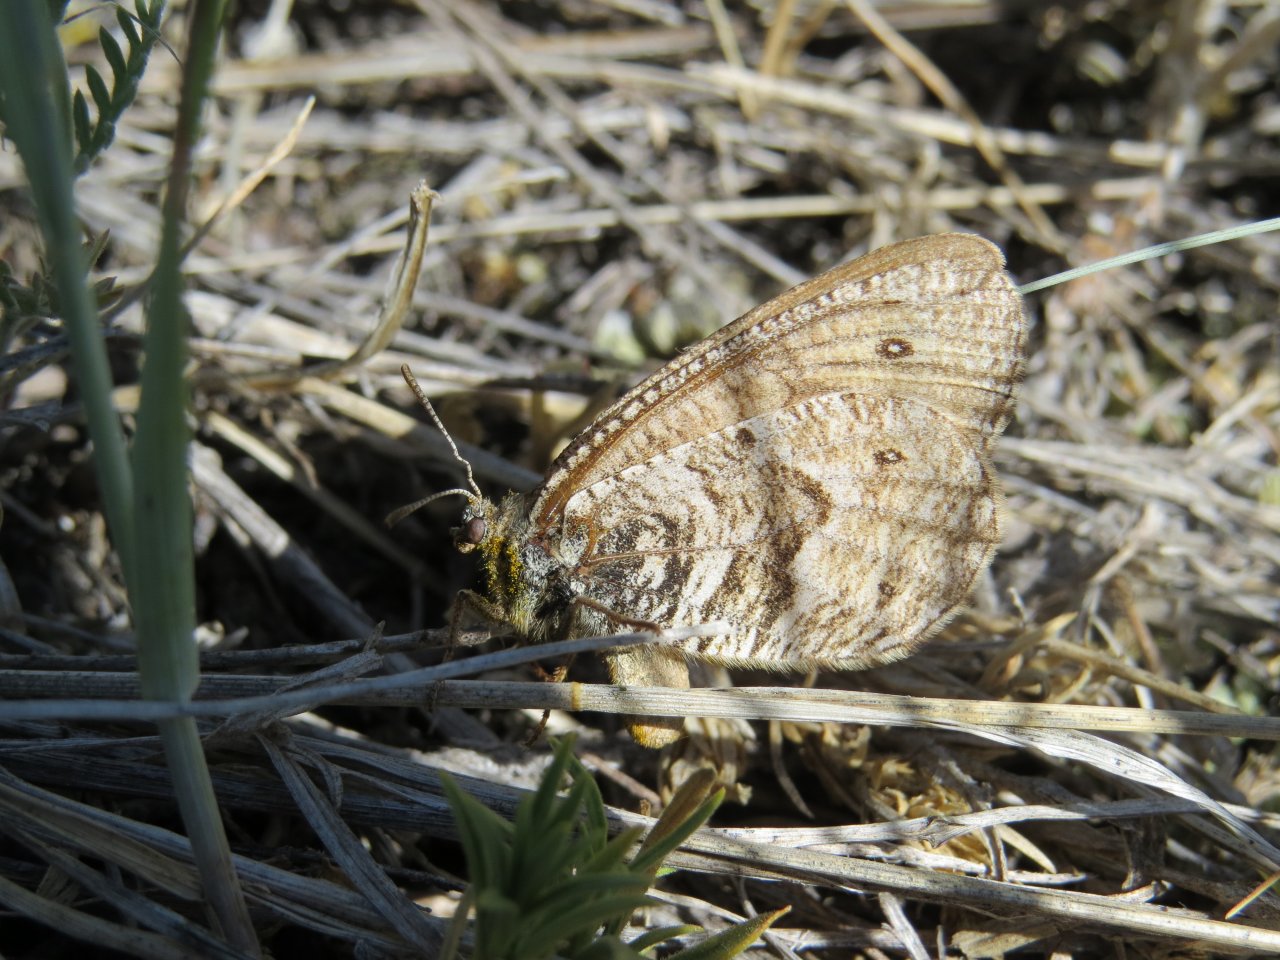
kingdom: Animalia
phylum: Arthropoda
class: Insecta
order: Lepidoptera
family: Nymphalidae
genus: Oeneis
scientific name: Oeneis uhleri
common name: Uhler's Arctic
